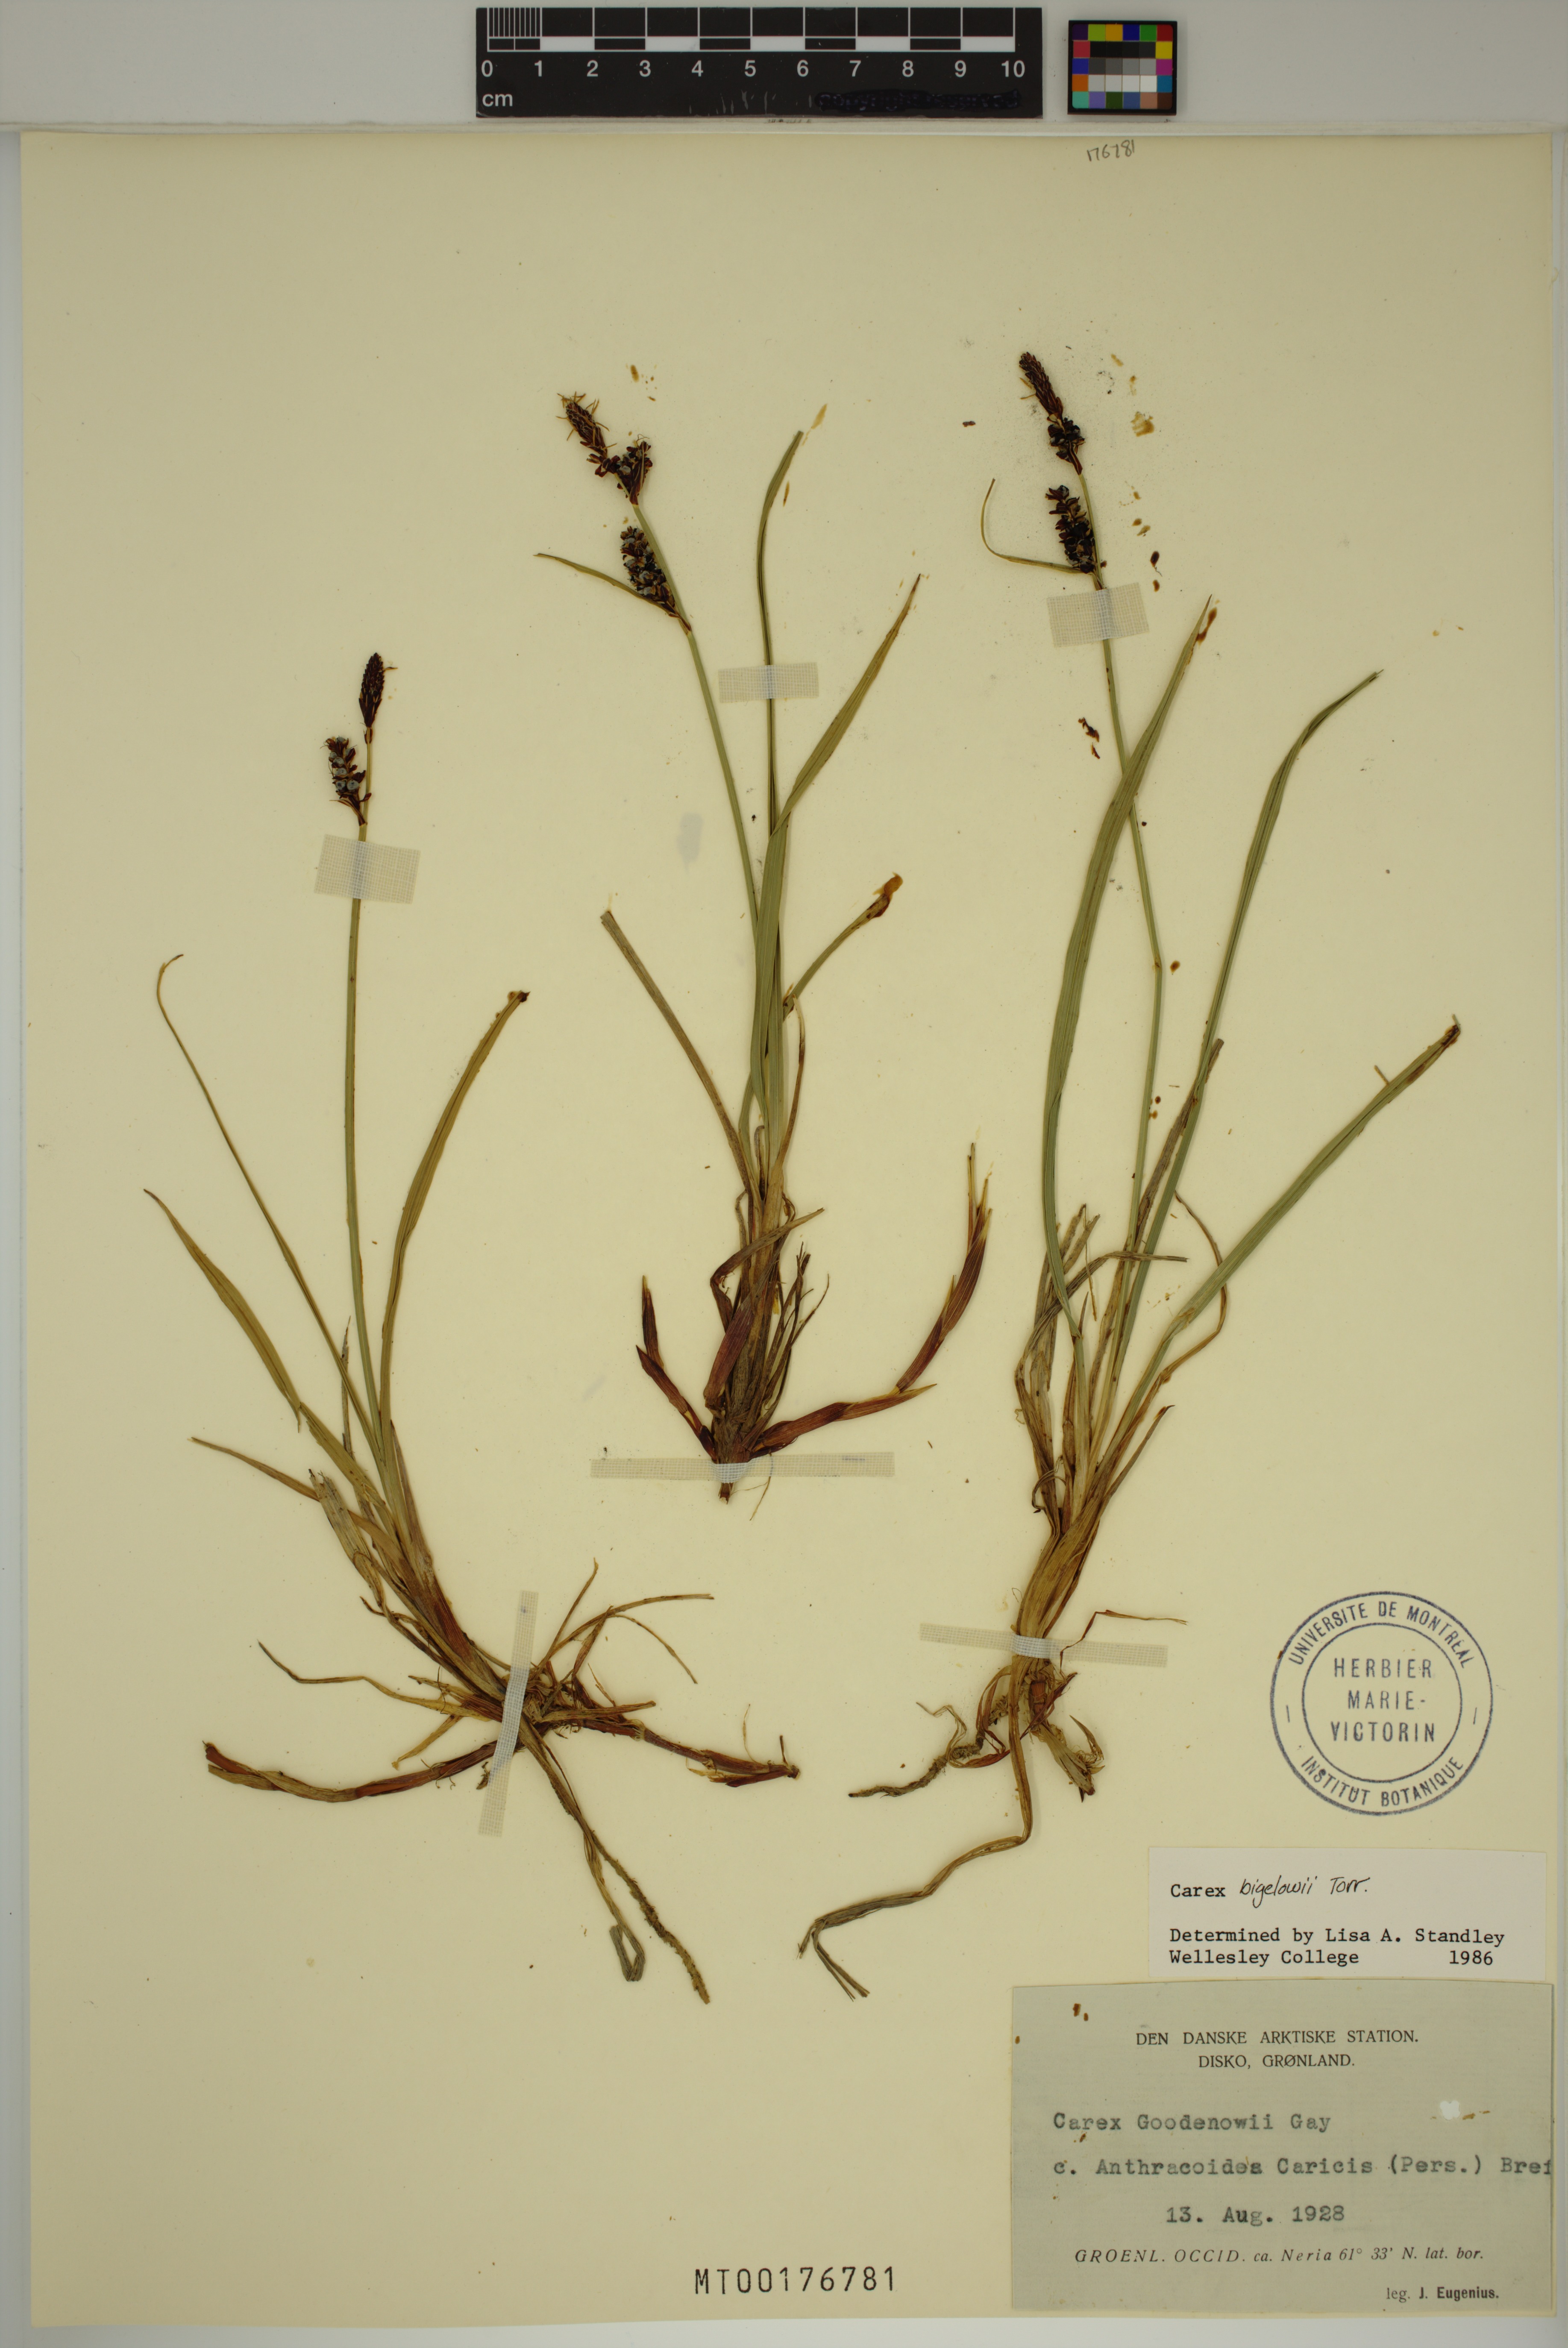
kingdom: Plantae
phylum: Tracheophyta
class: Liliopsida
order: Poales
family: Cyperaceae
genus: Carex
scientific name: Carex bigelowii
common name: Stiff sedge
